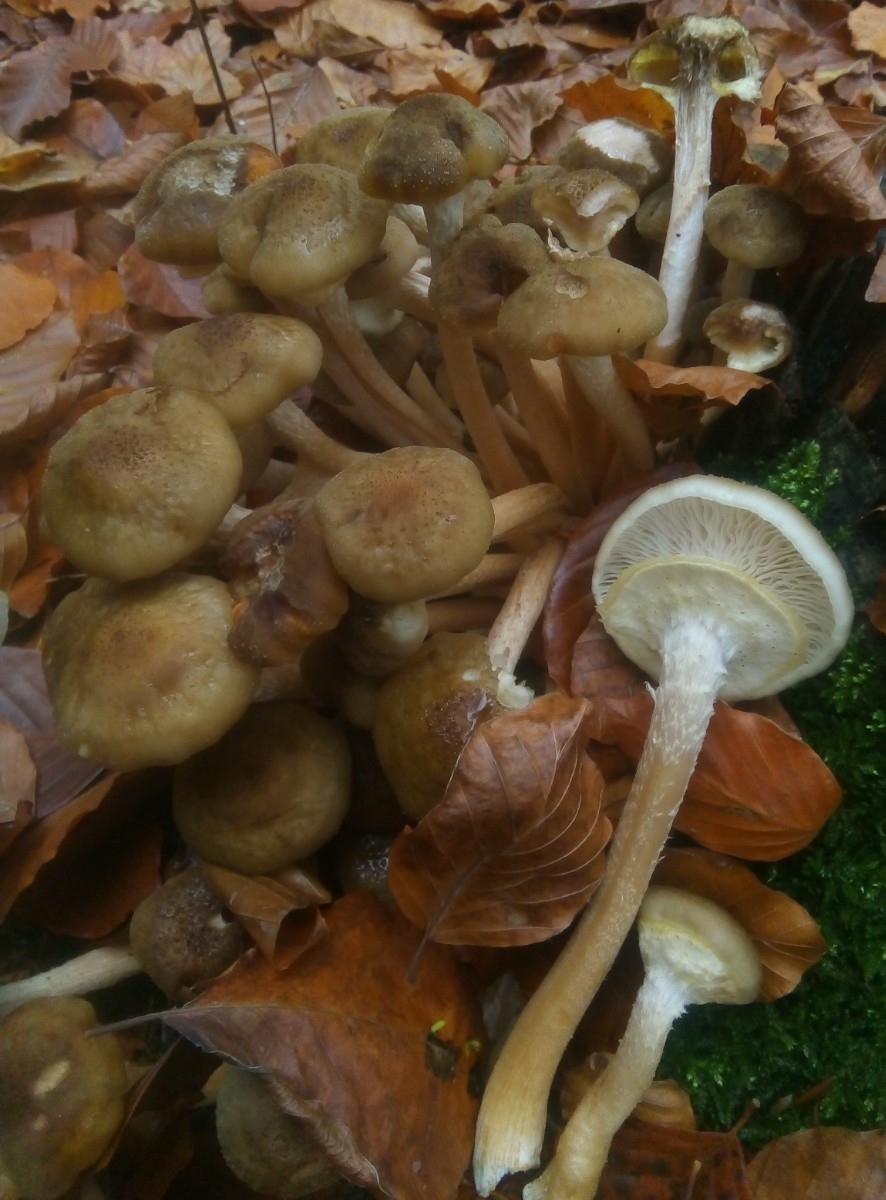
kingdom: Fungi
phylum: Basidiomycota
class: Agaricomycetes
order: Agaricales
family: Physalacriaceae
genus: Armillaria
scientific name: Armillaria mellea
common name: ægte honningsvamp
